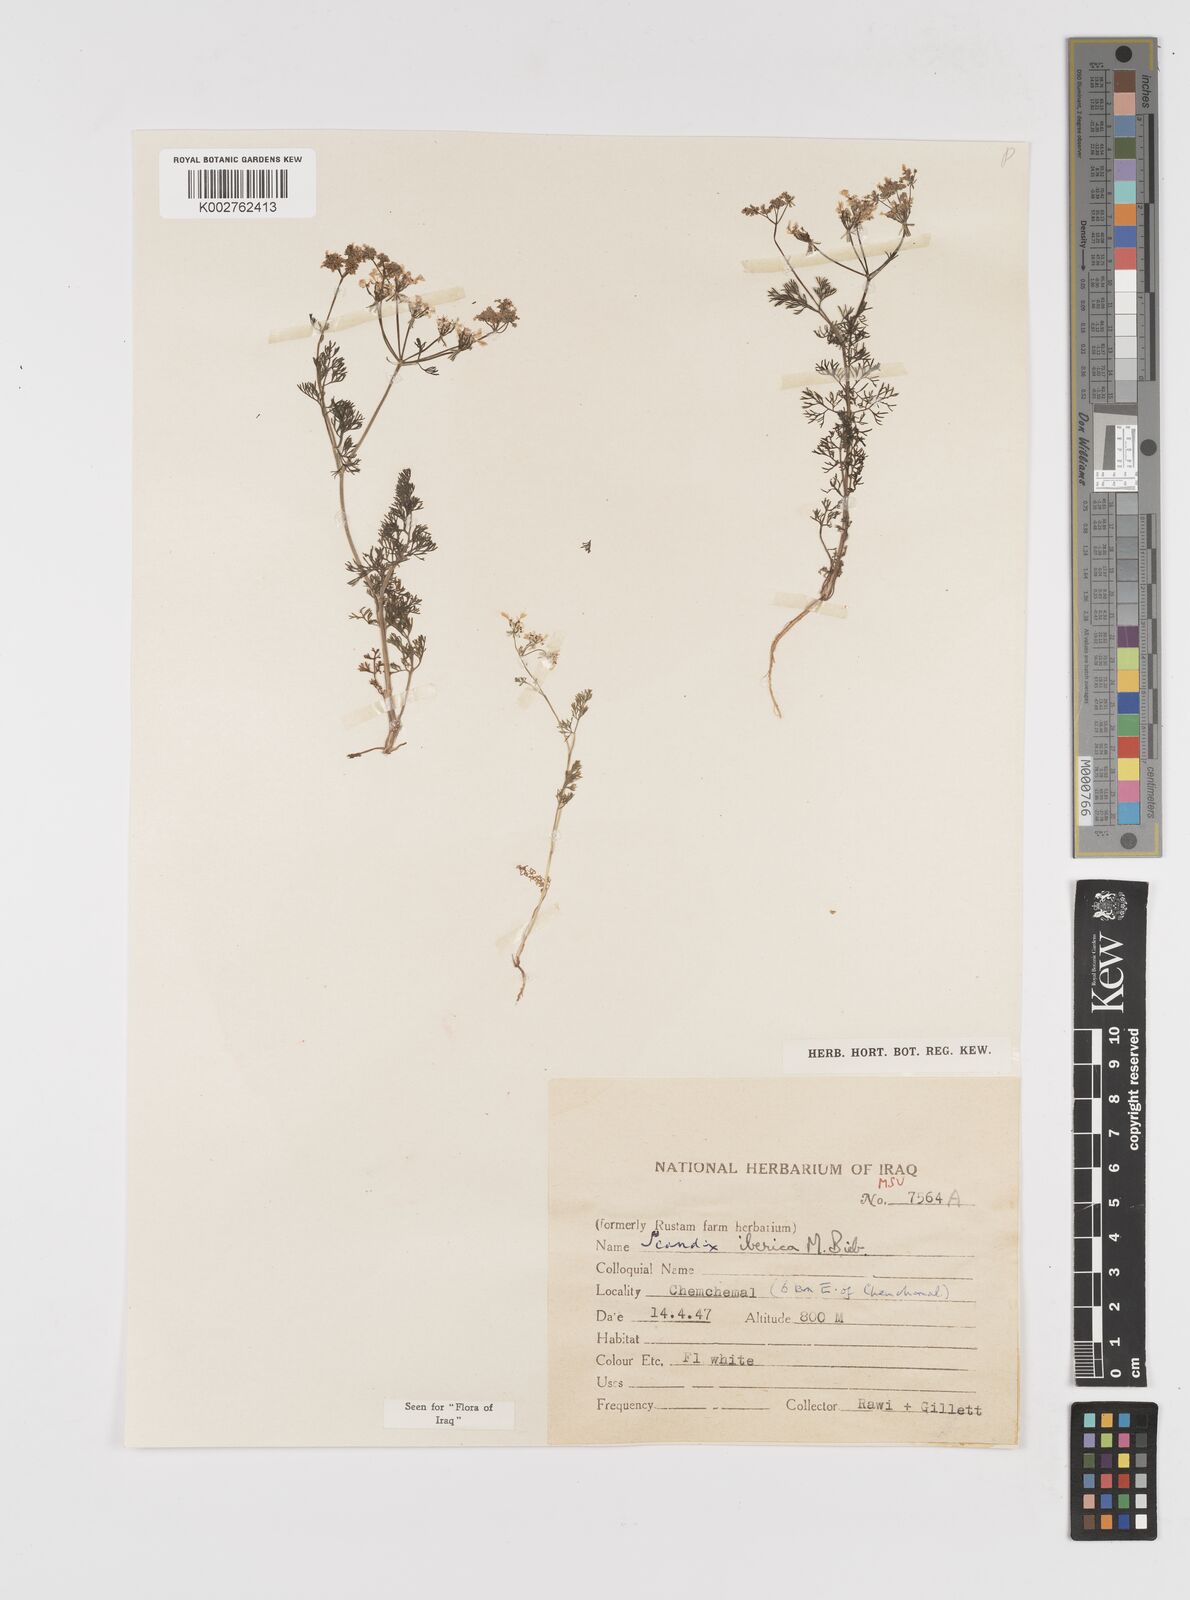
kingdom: Plantae
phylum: Tracheophyta
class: Magnoliopsida
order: Apiales
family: Apiaceae
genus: Scandix
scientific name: Scandix iberica
